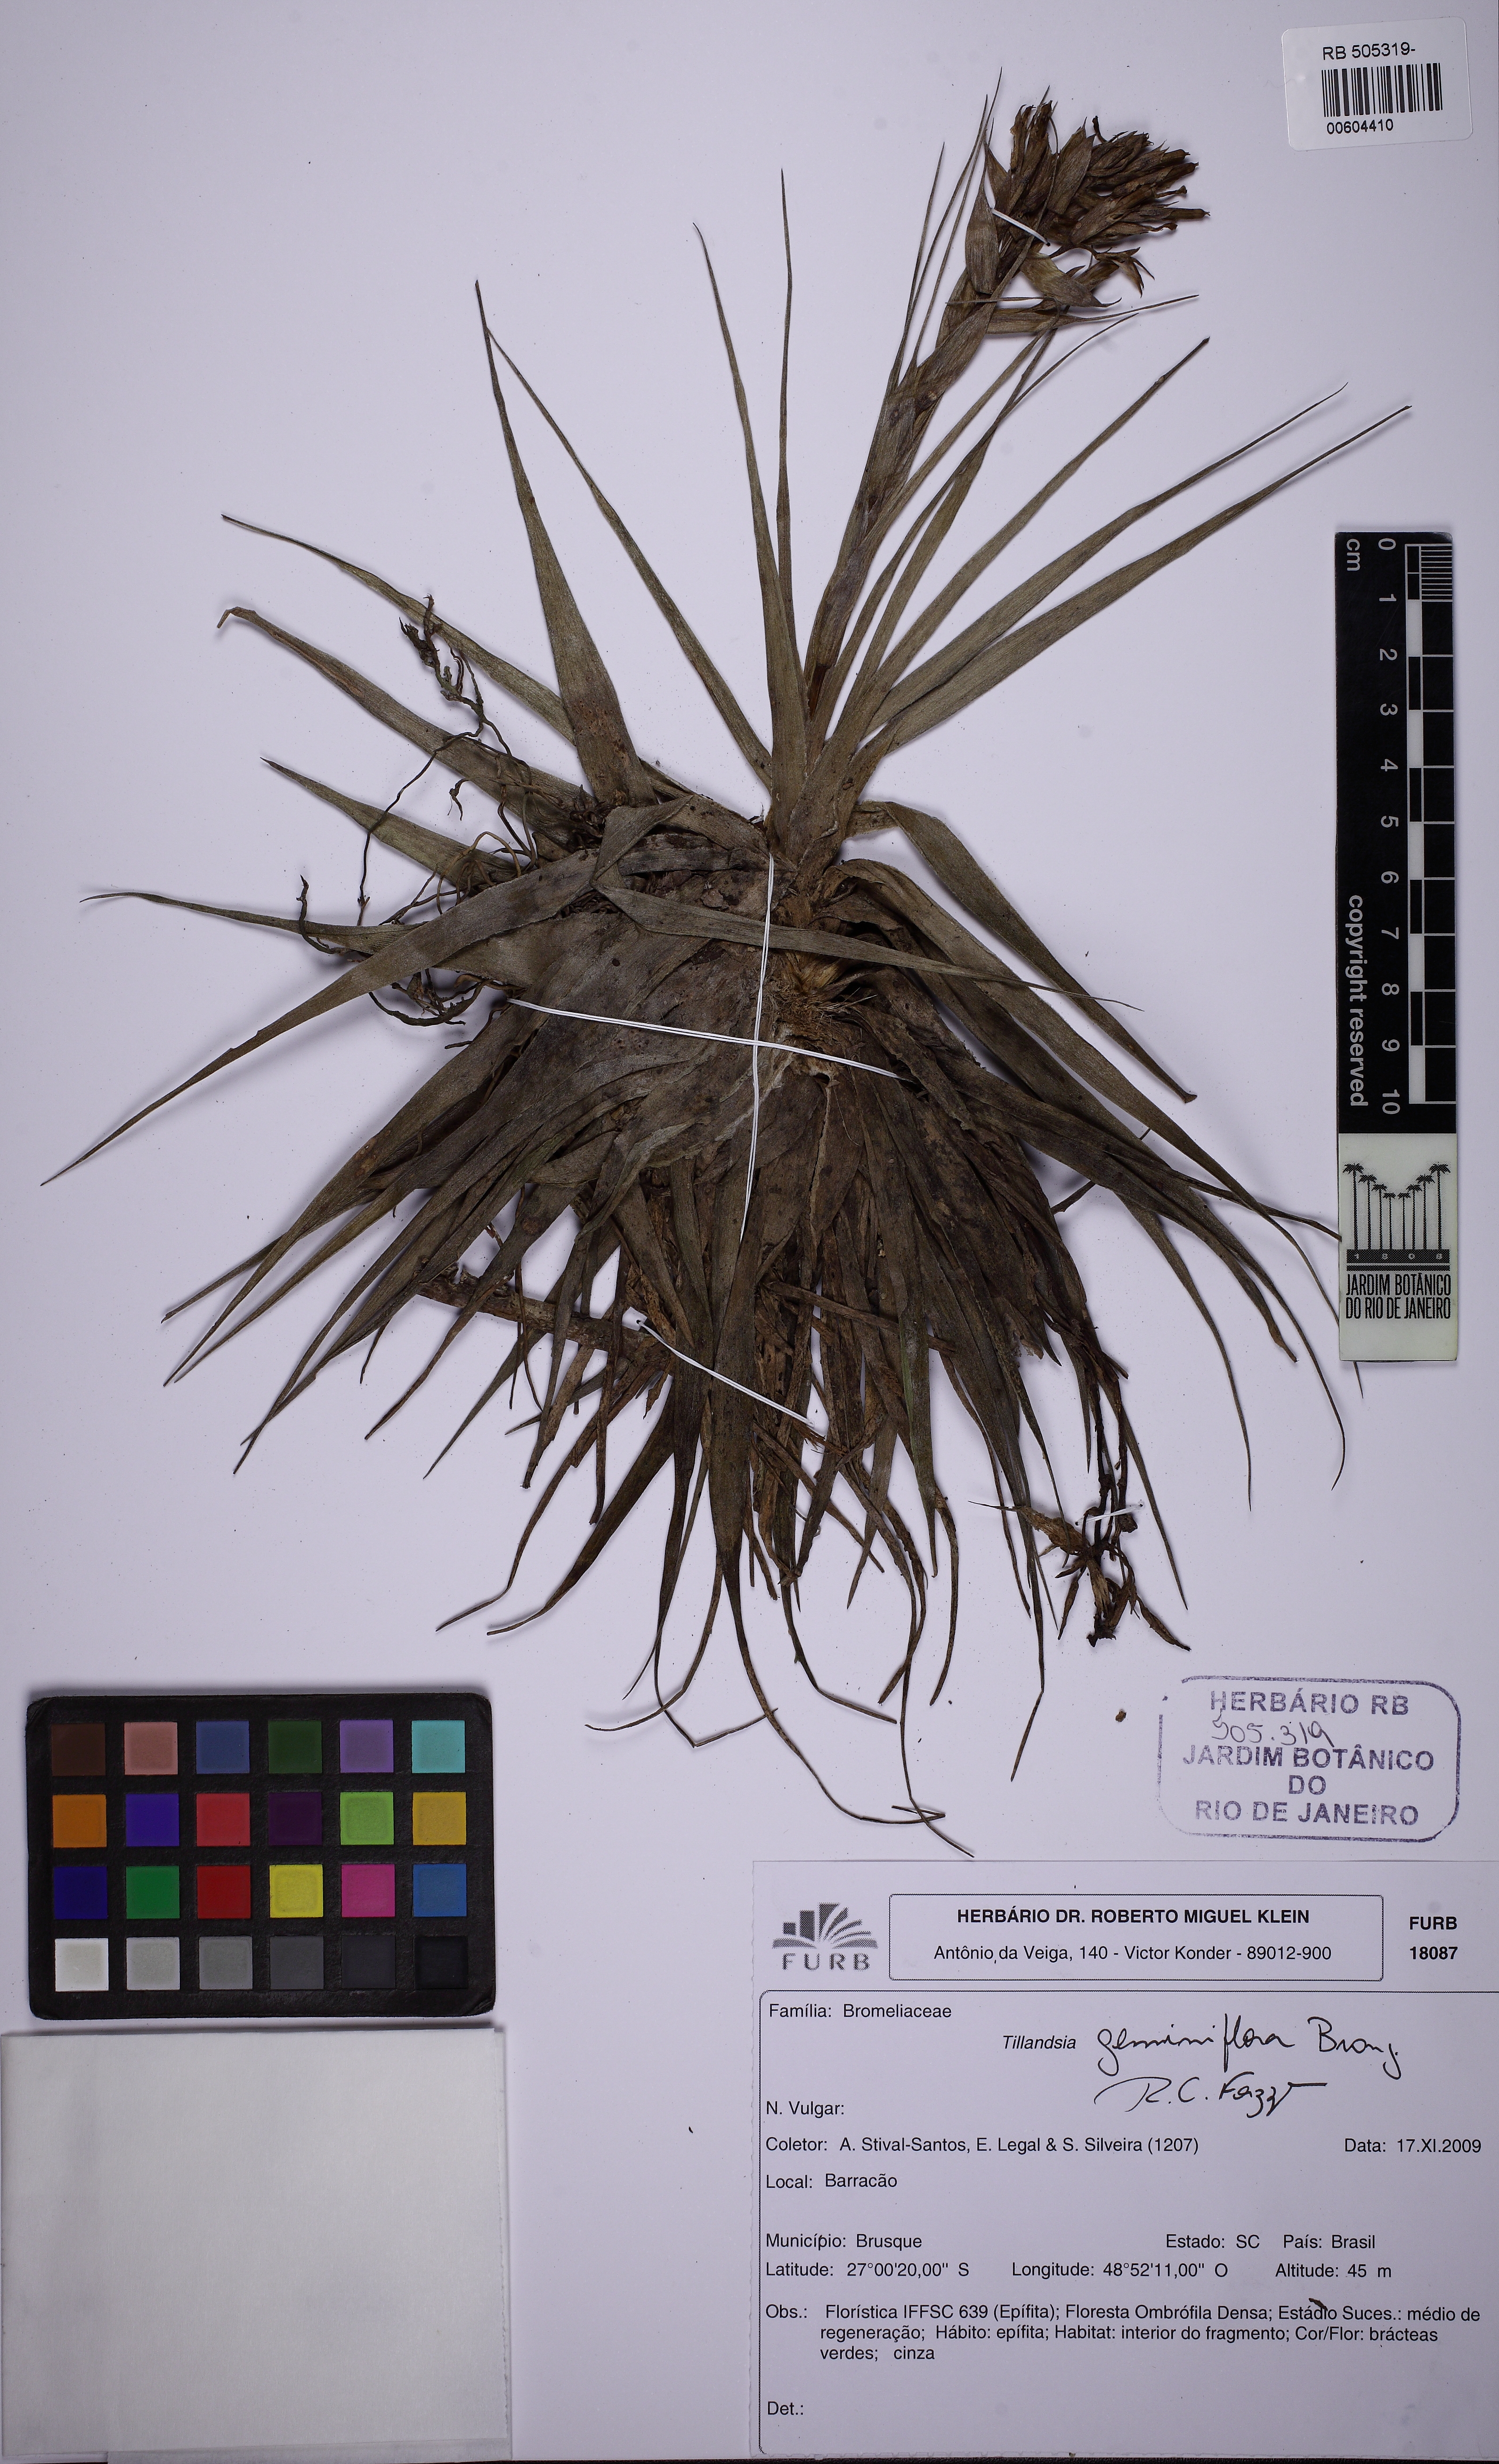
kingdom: Plantae
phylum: Tracheophyta
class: Liliopsida
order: Poales
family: Bromeliaceae
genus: Tillandsia
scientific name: Tillandsia geminiflora
